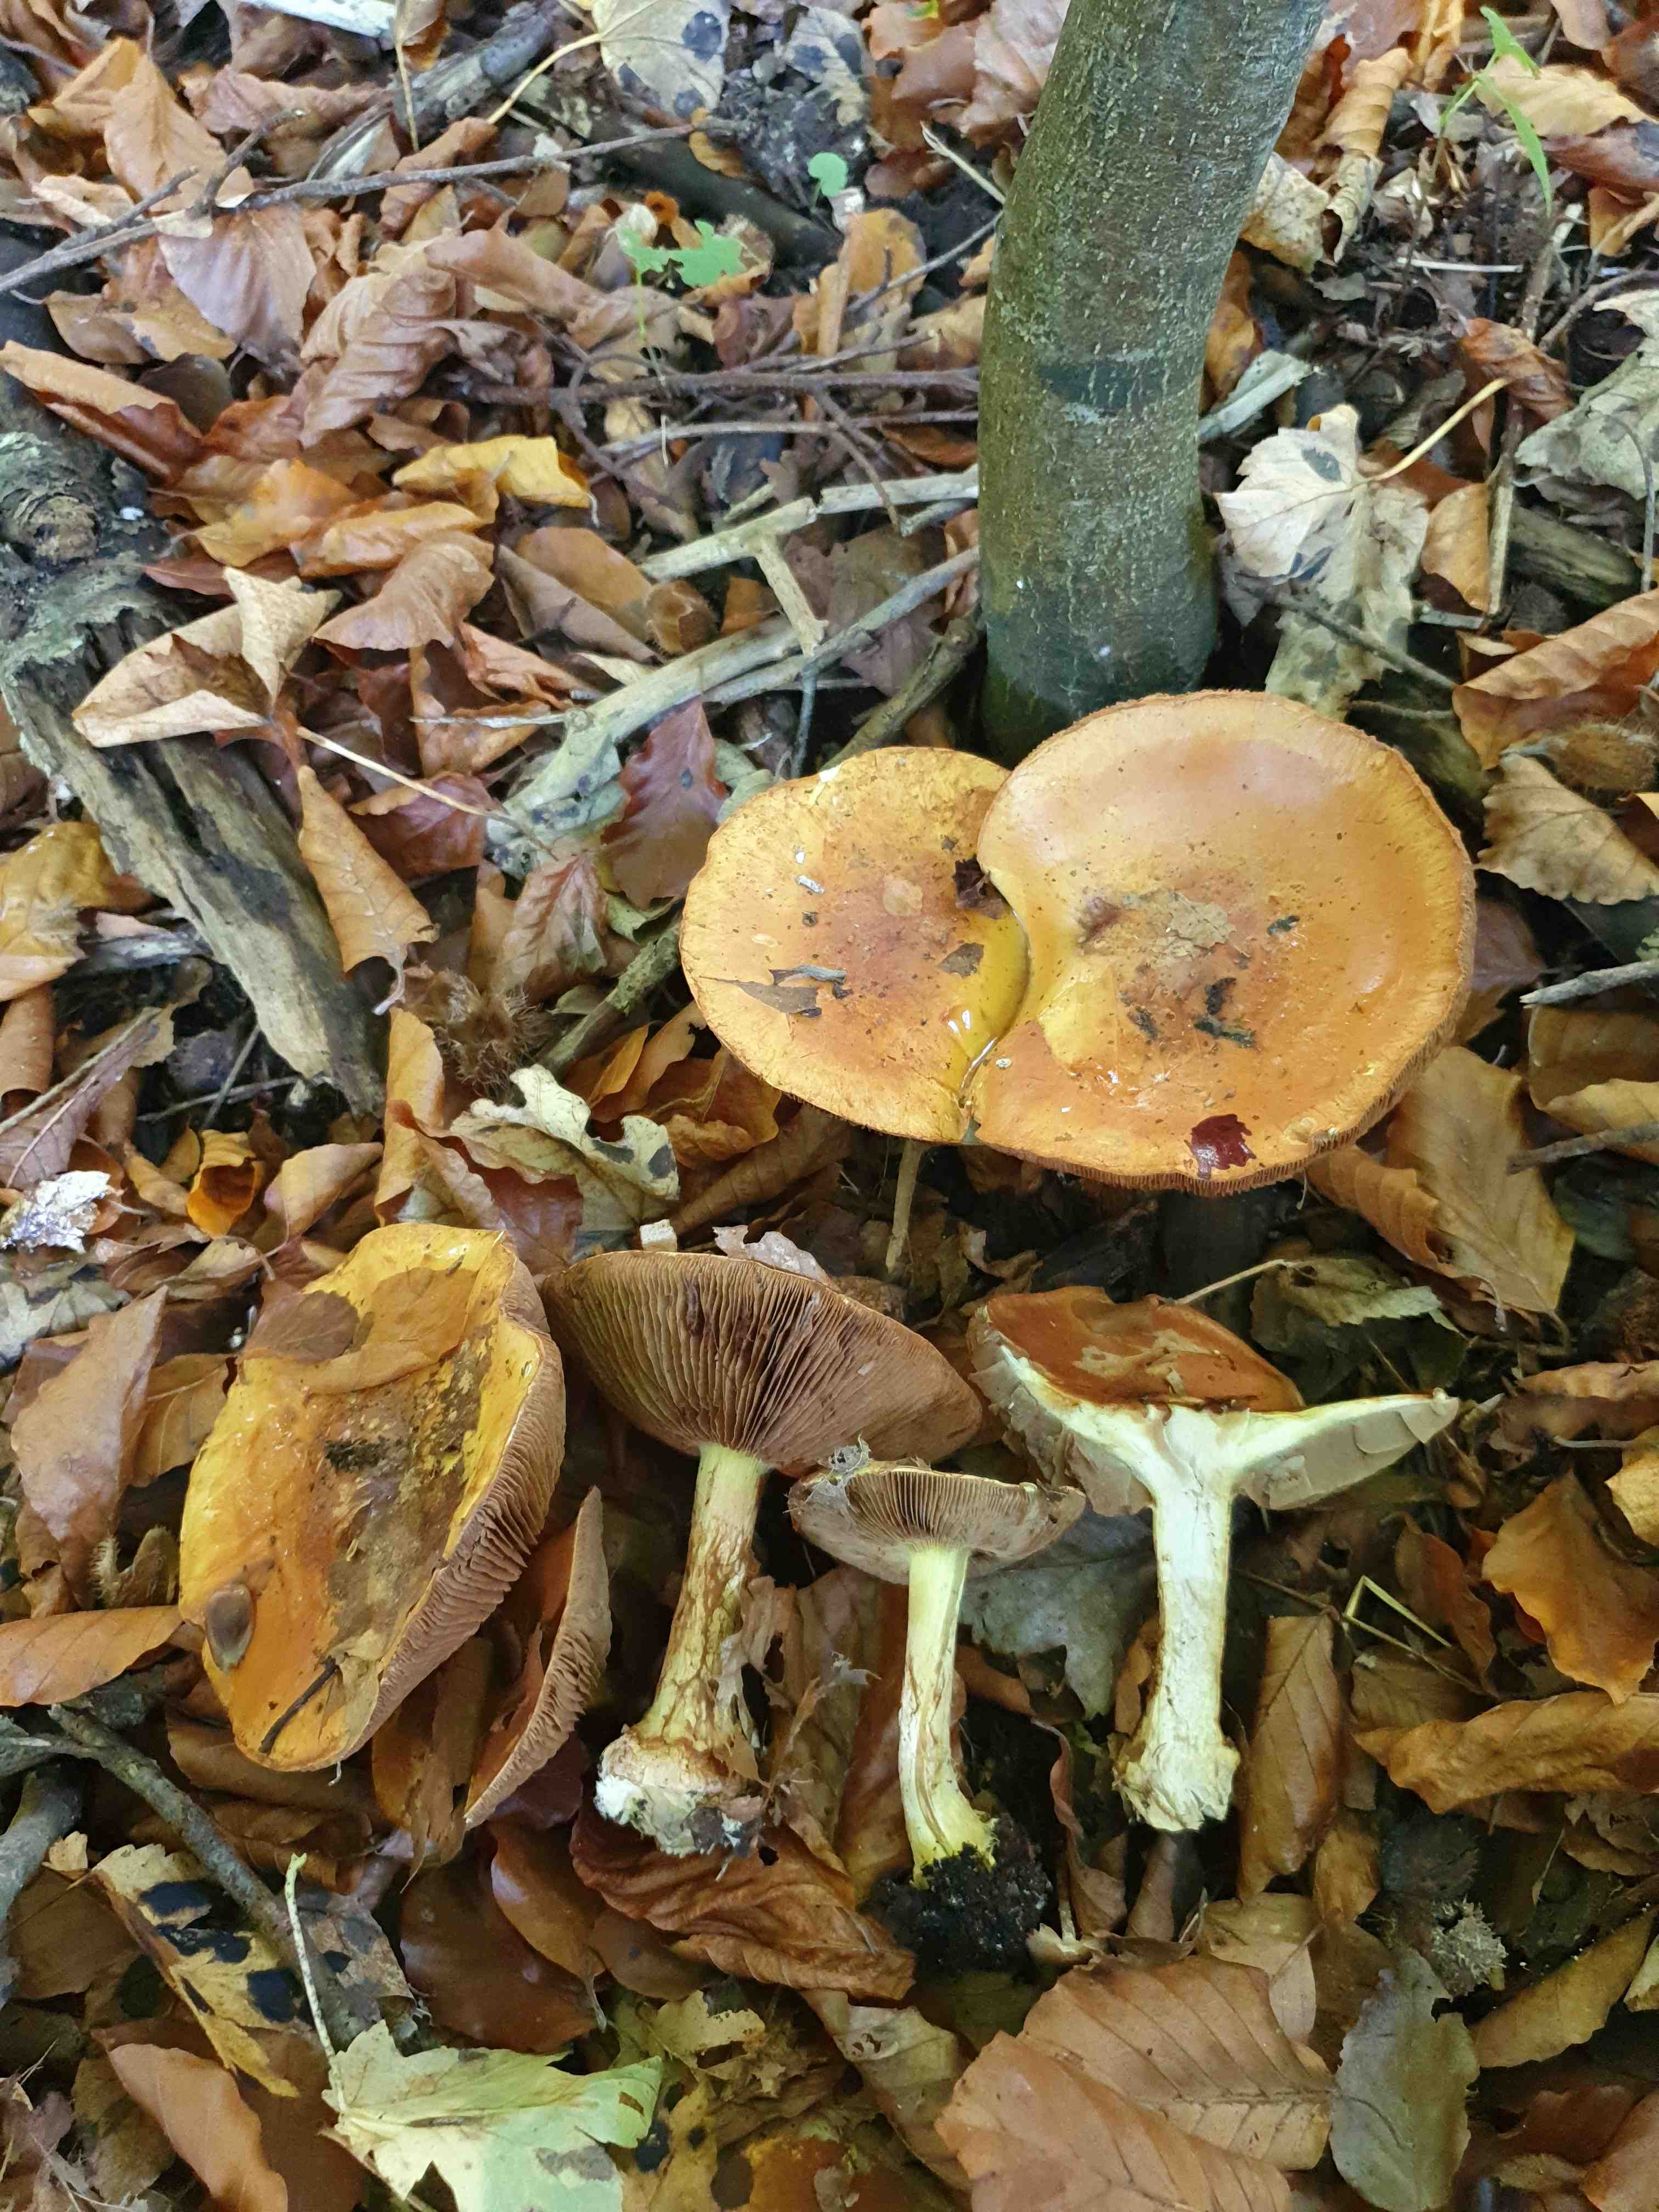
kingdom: Fungi
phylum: Basidiomycota
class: Agaricomycetes
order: Agaricales
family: Cortinariaceae
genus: Calonarius
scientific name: Calonarius elegantissimus
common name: orangegylden slørhat
